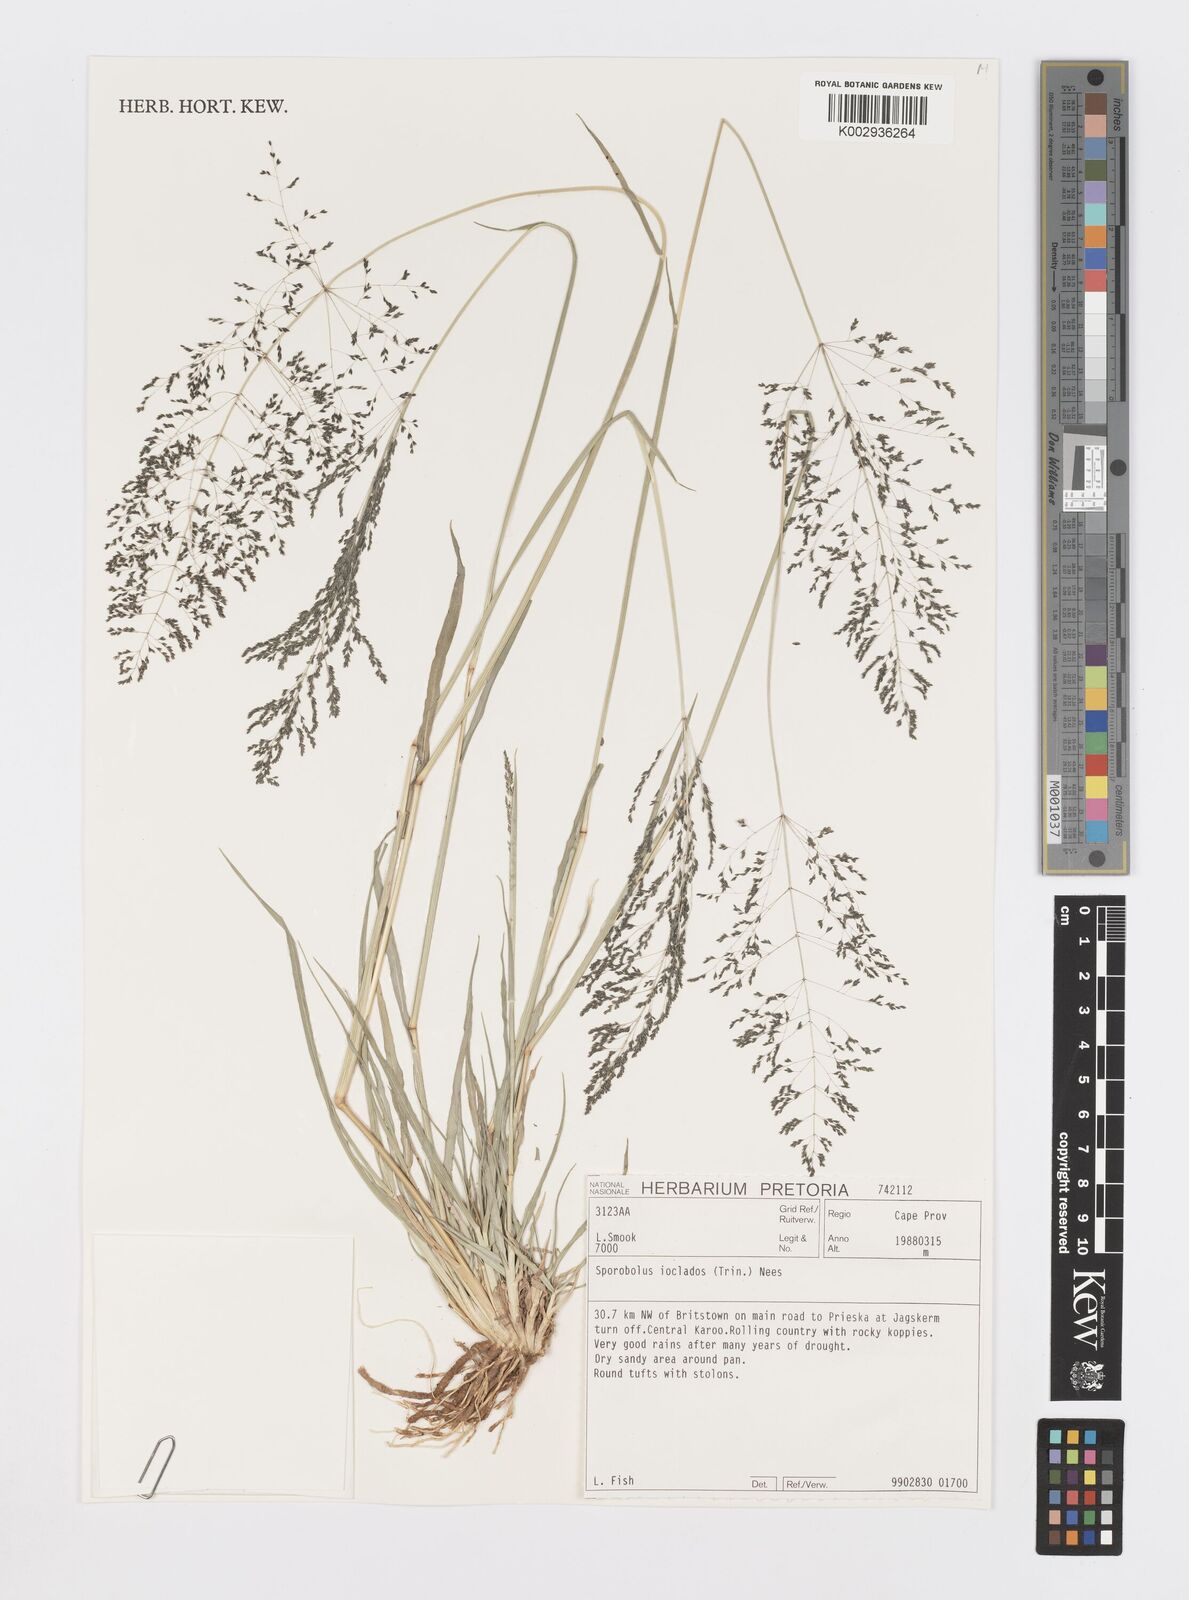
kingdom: Plantae
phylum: Tracheophyta
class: Liliopsida
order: Poales
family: Poaceae
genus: Sporobolus
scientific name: Sporobolus ioclados
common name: Pan dropseed
